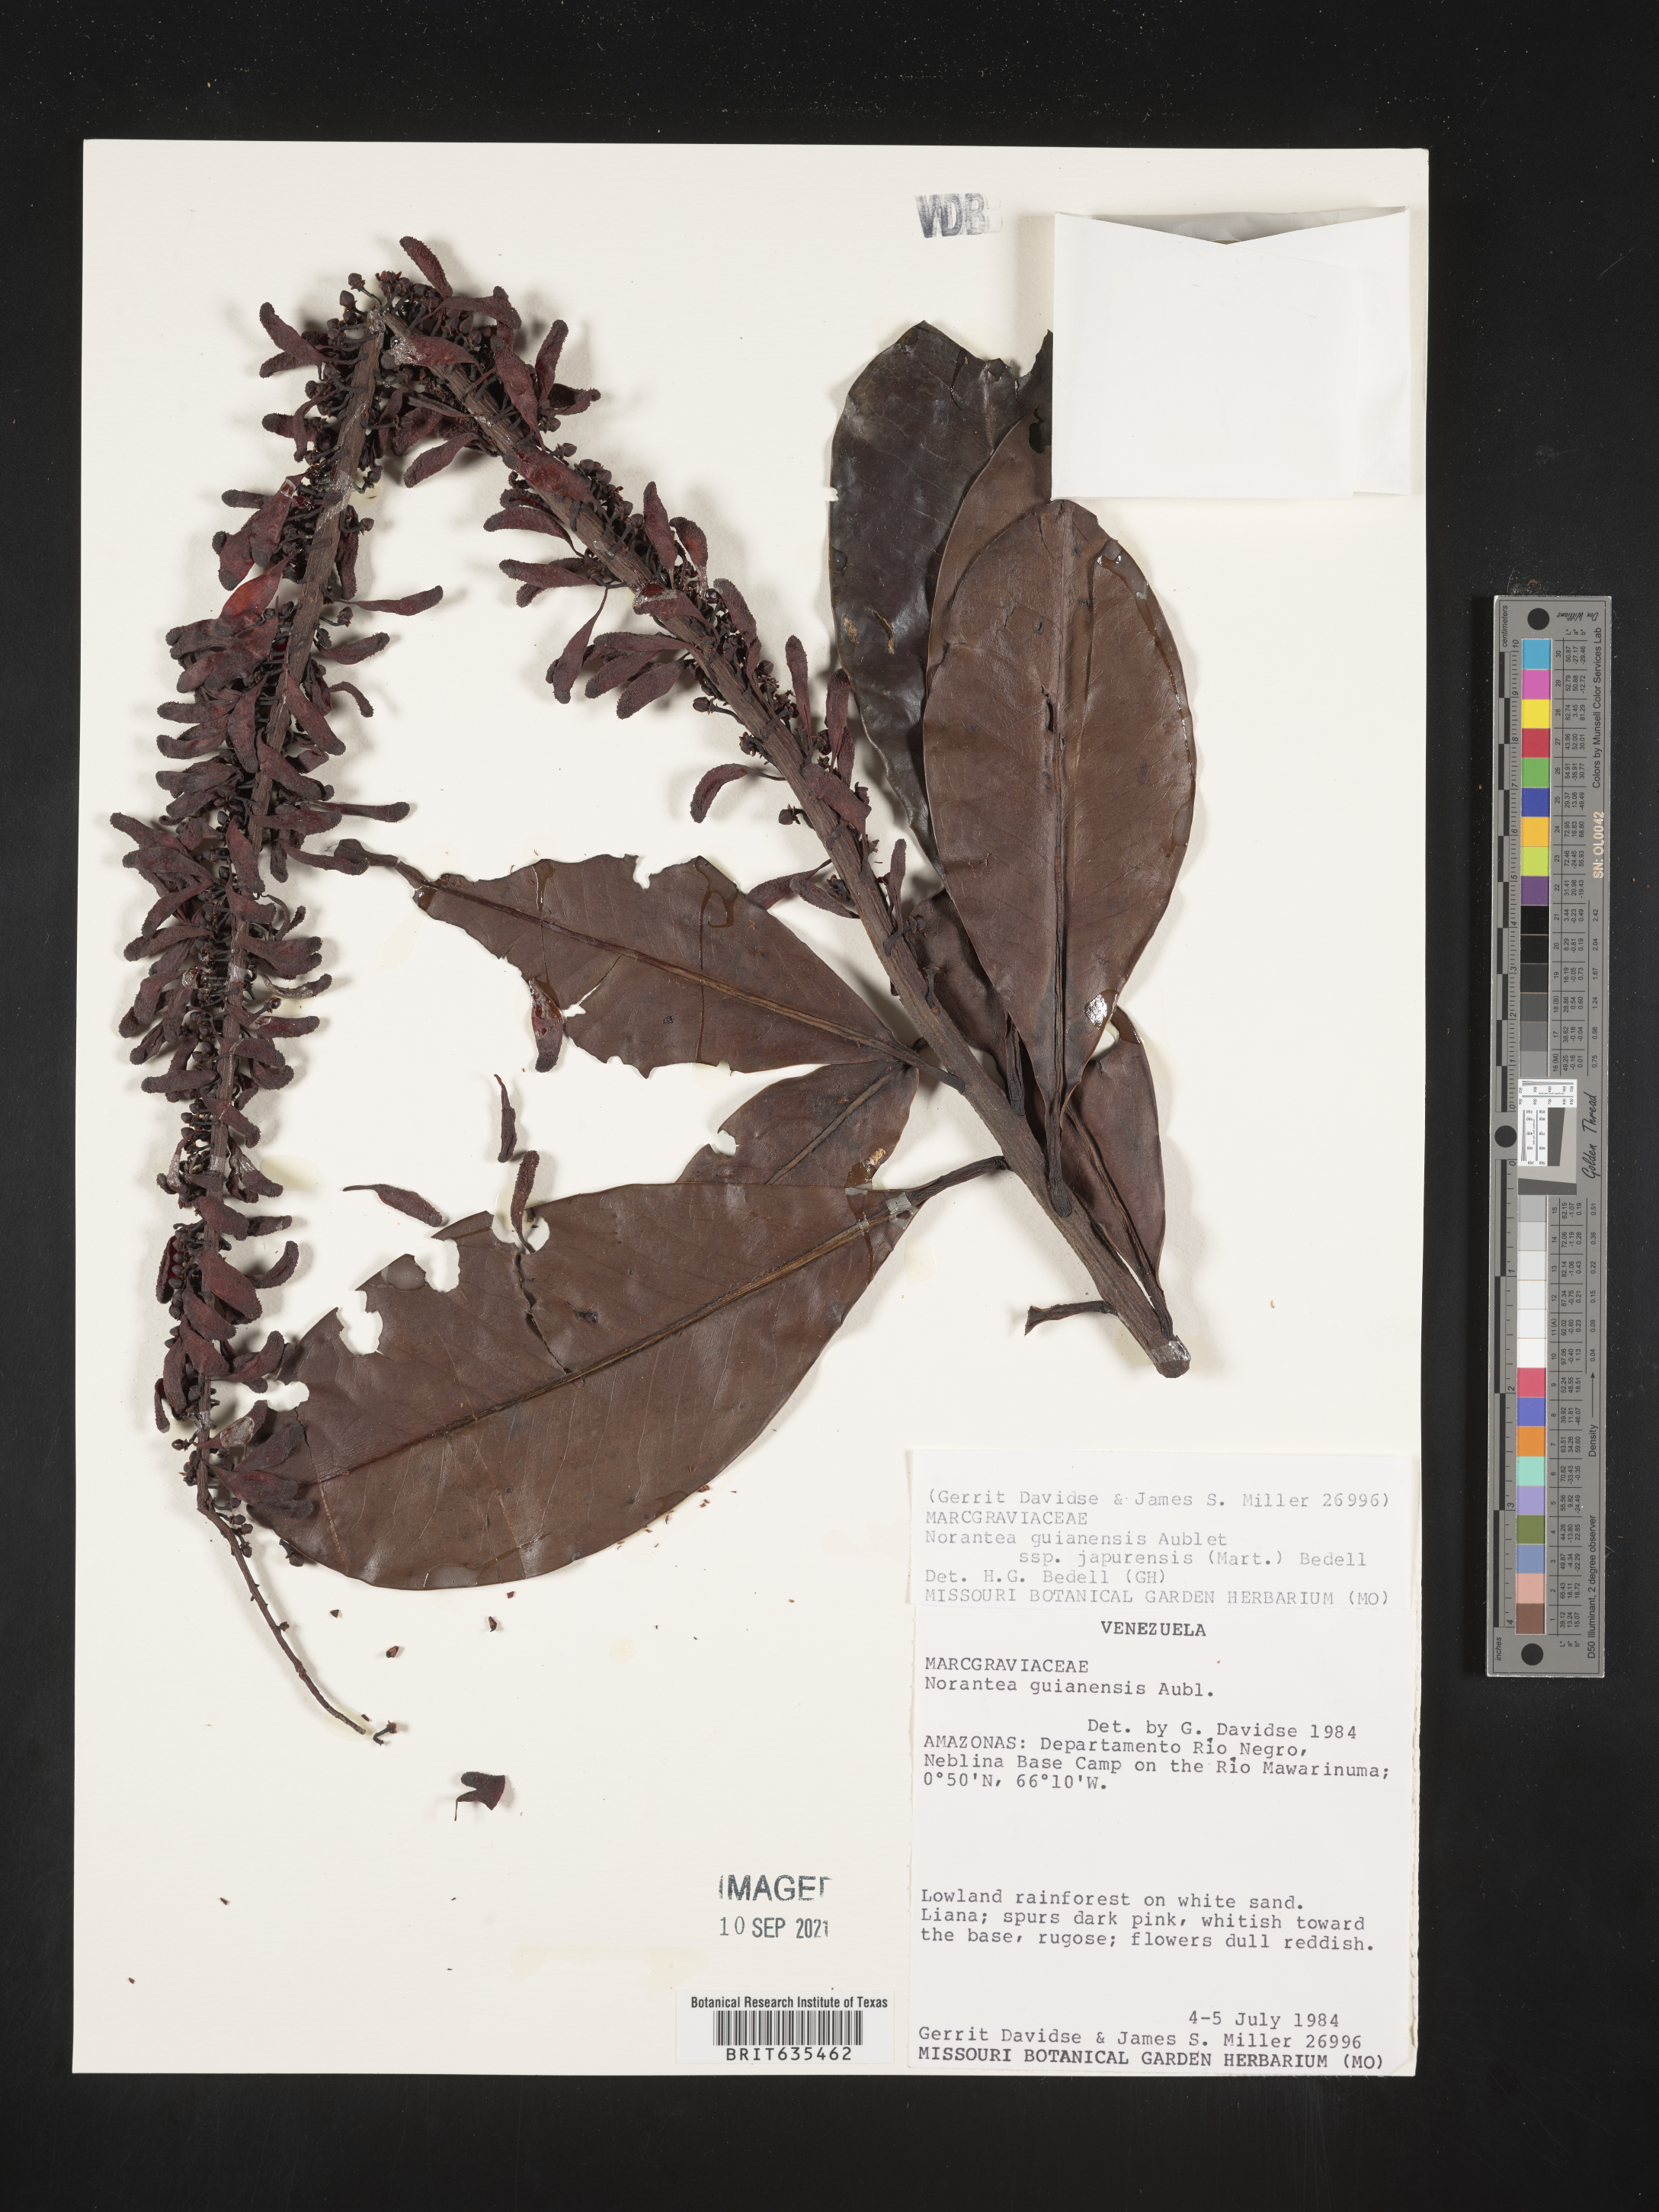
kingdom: Plantae
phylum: Tracheophyta
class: Magnoliopsida
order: Ericales
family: Marcgraviaceae
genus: Norantea
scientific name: Norantea
